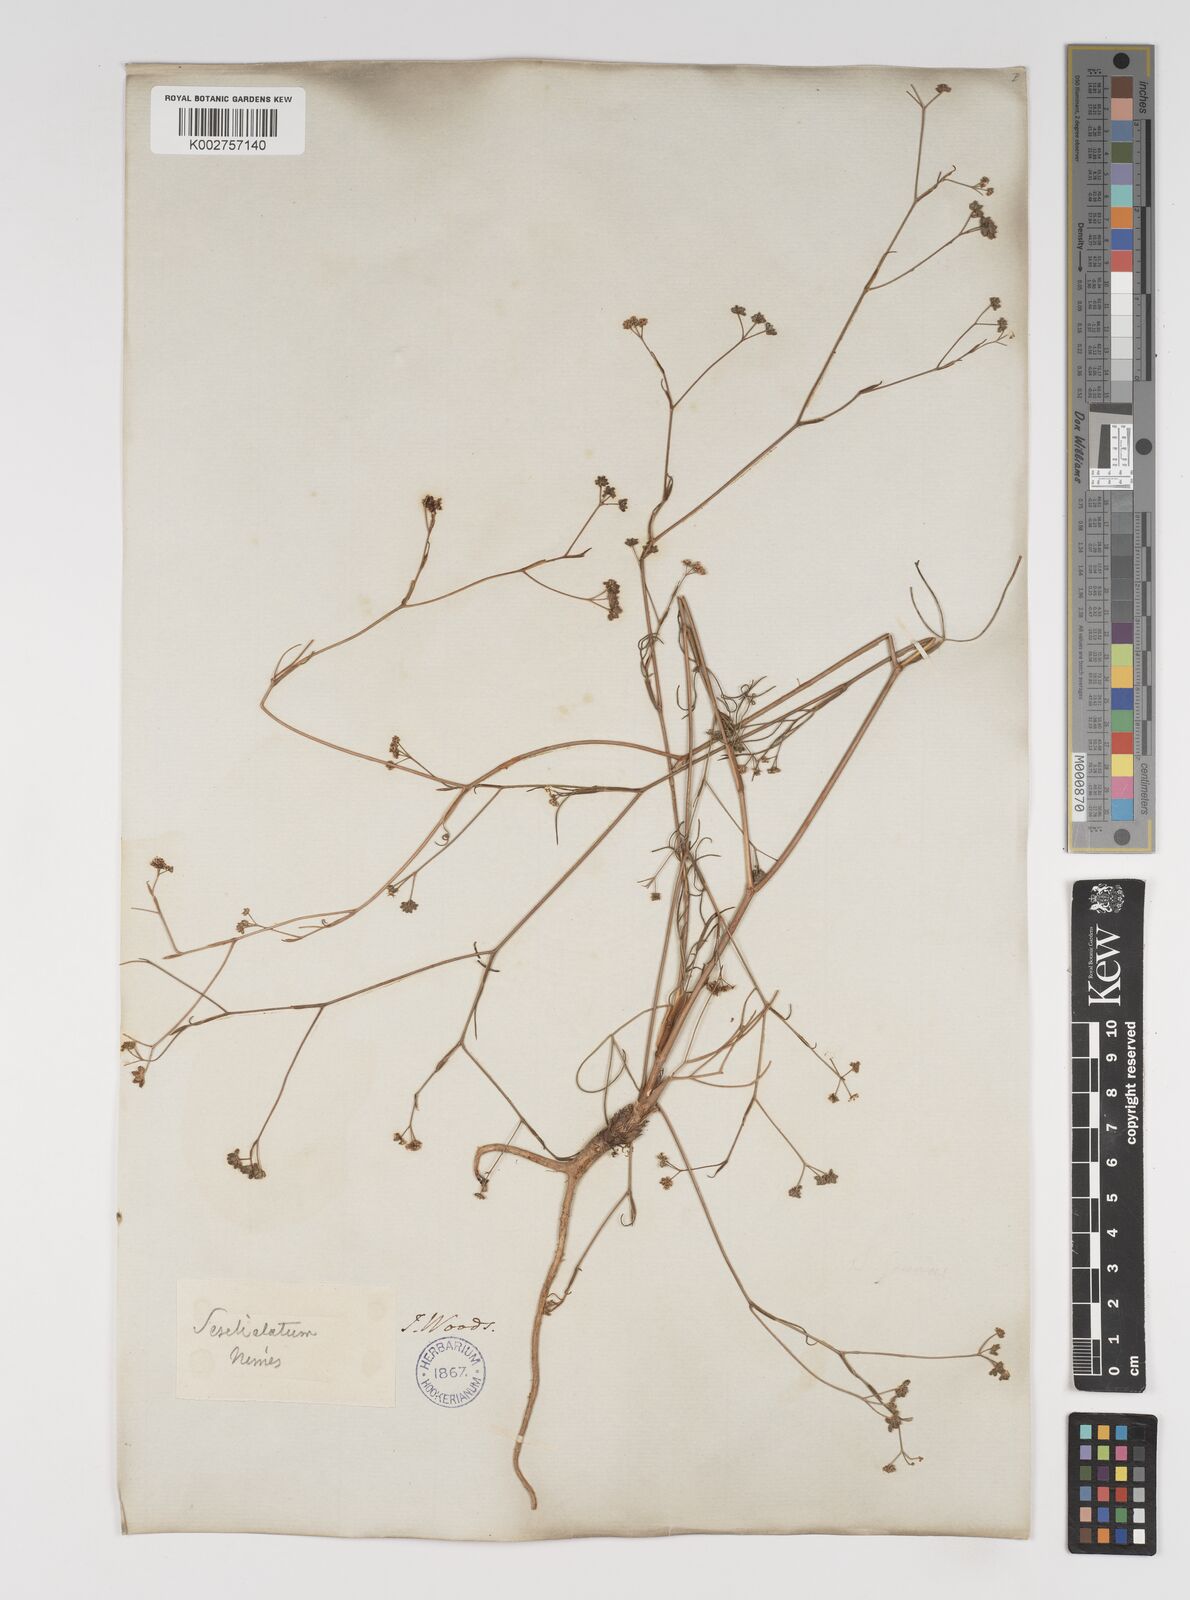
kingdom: Plantae
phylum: Tracheophyta
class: Magnoliopsida
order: Apiales
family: Apiaceae
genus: Seseli
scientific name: Seseli longifolium
